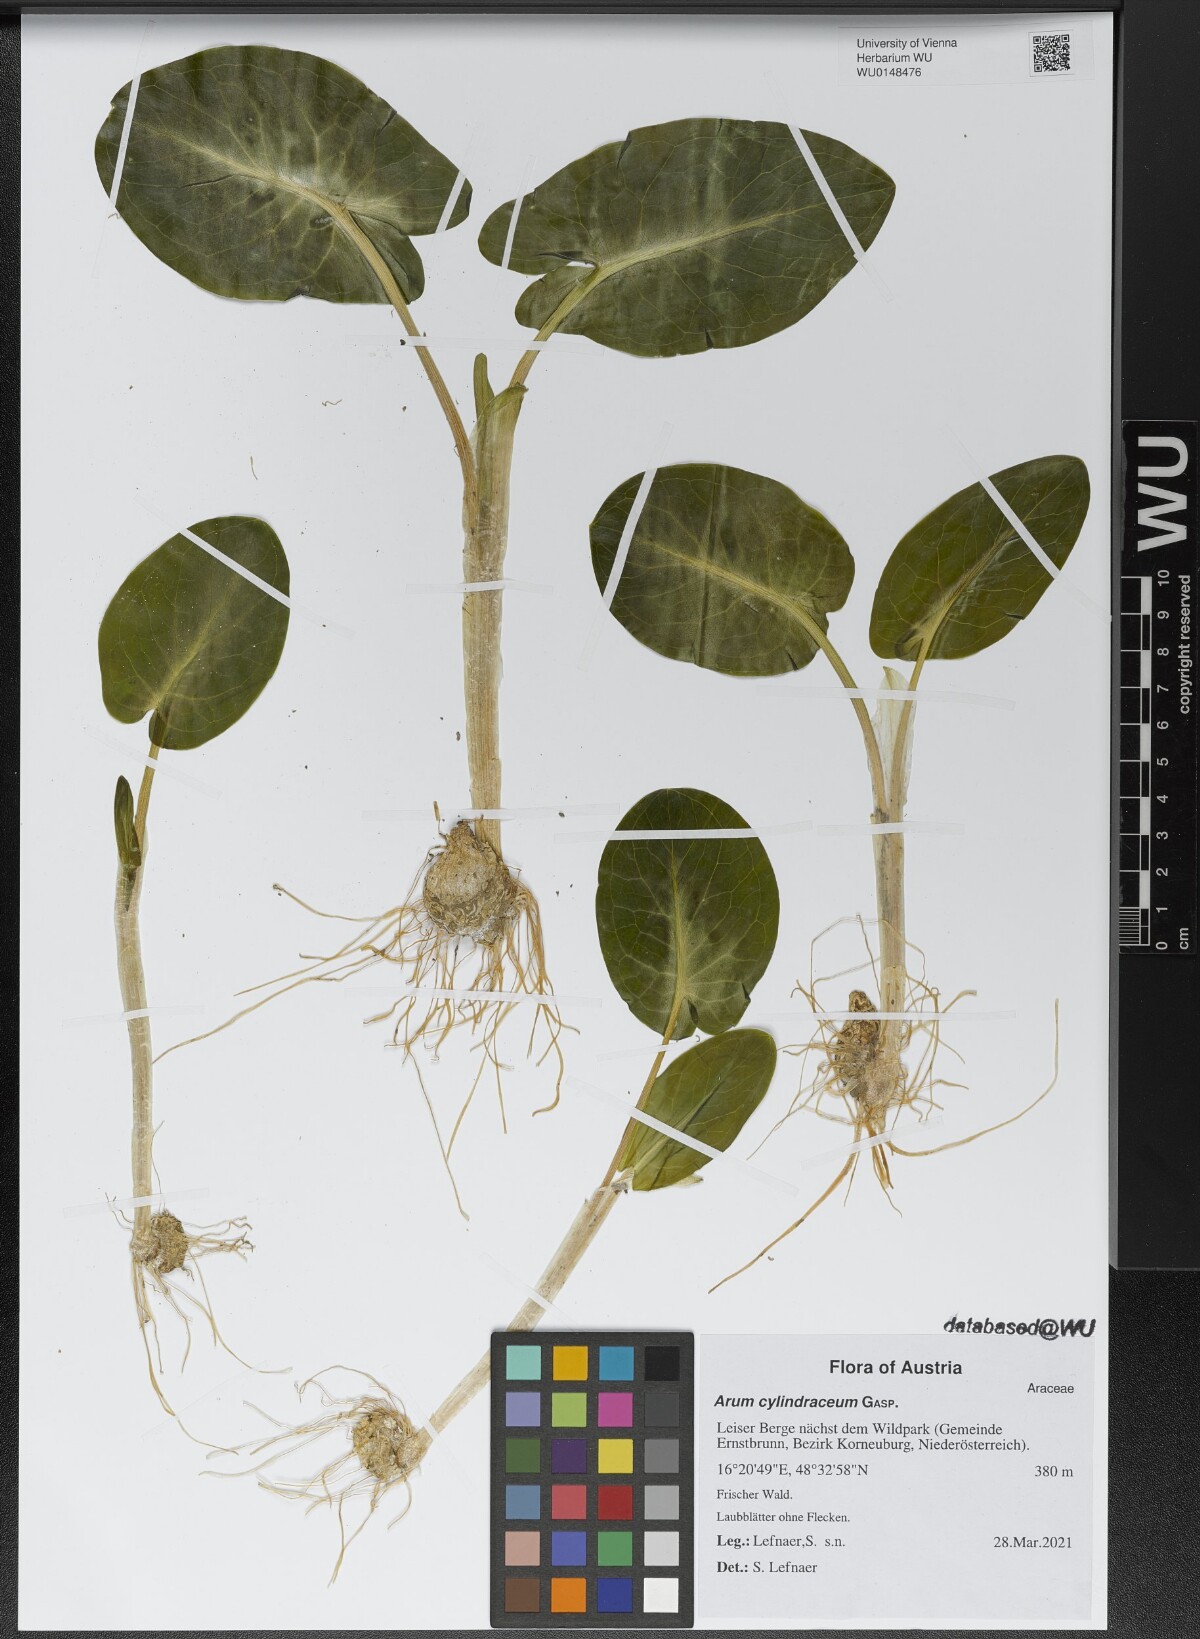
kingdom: Plantae
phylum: Tracheophyta
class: Liliopsida
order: Alismatales
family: Araceae
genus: Arum
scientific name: Arum cylindraceum
